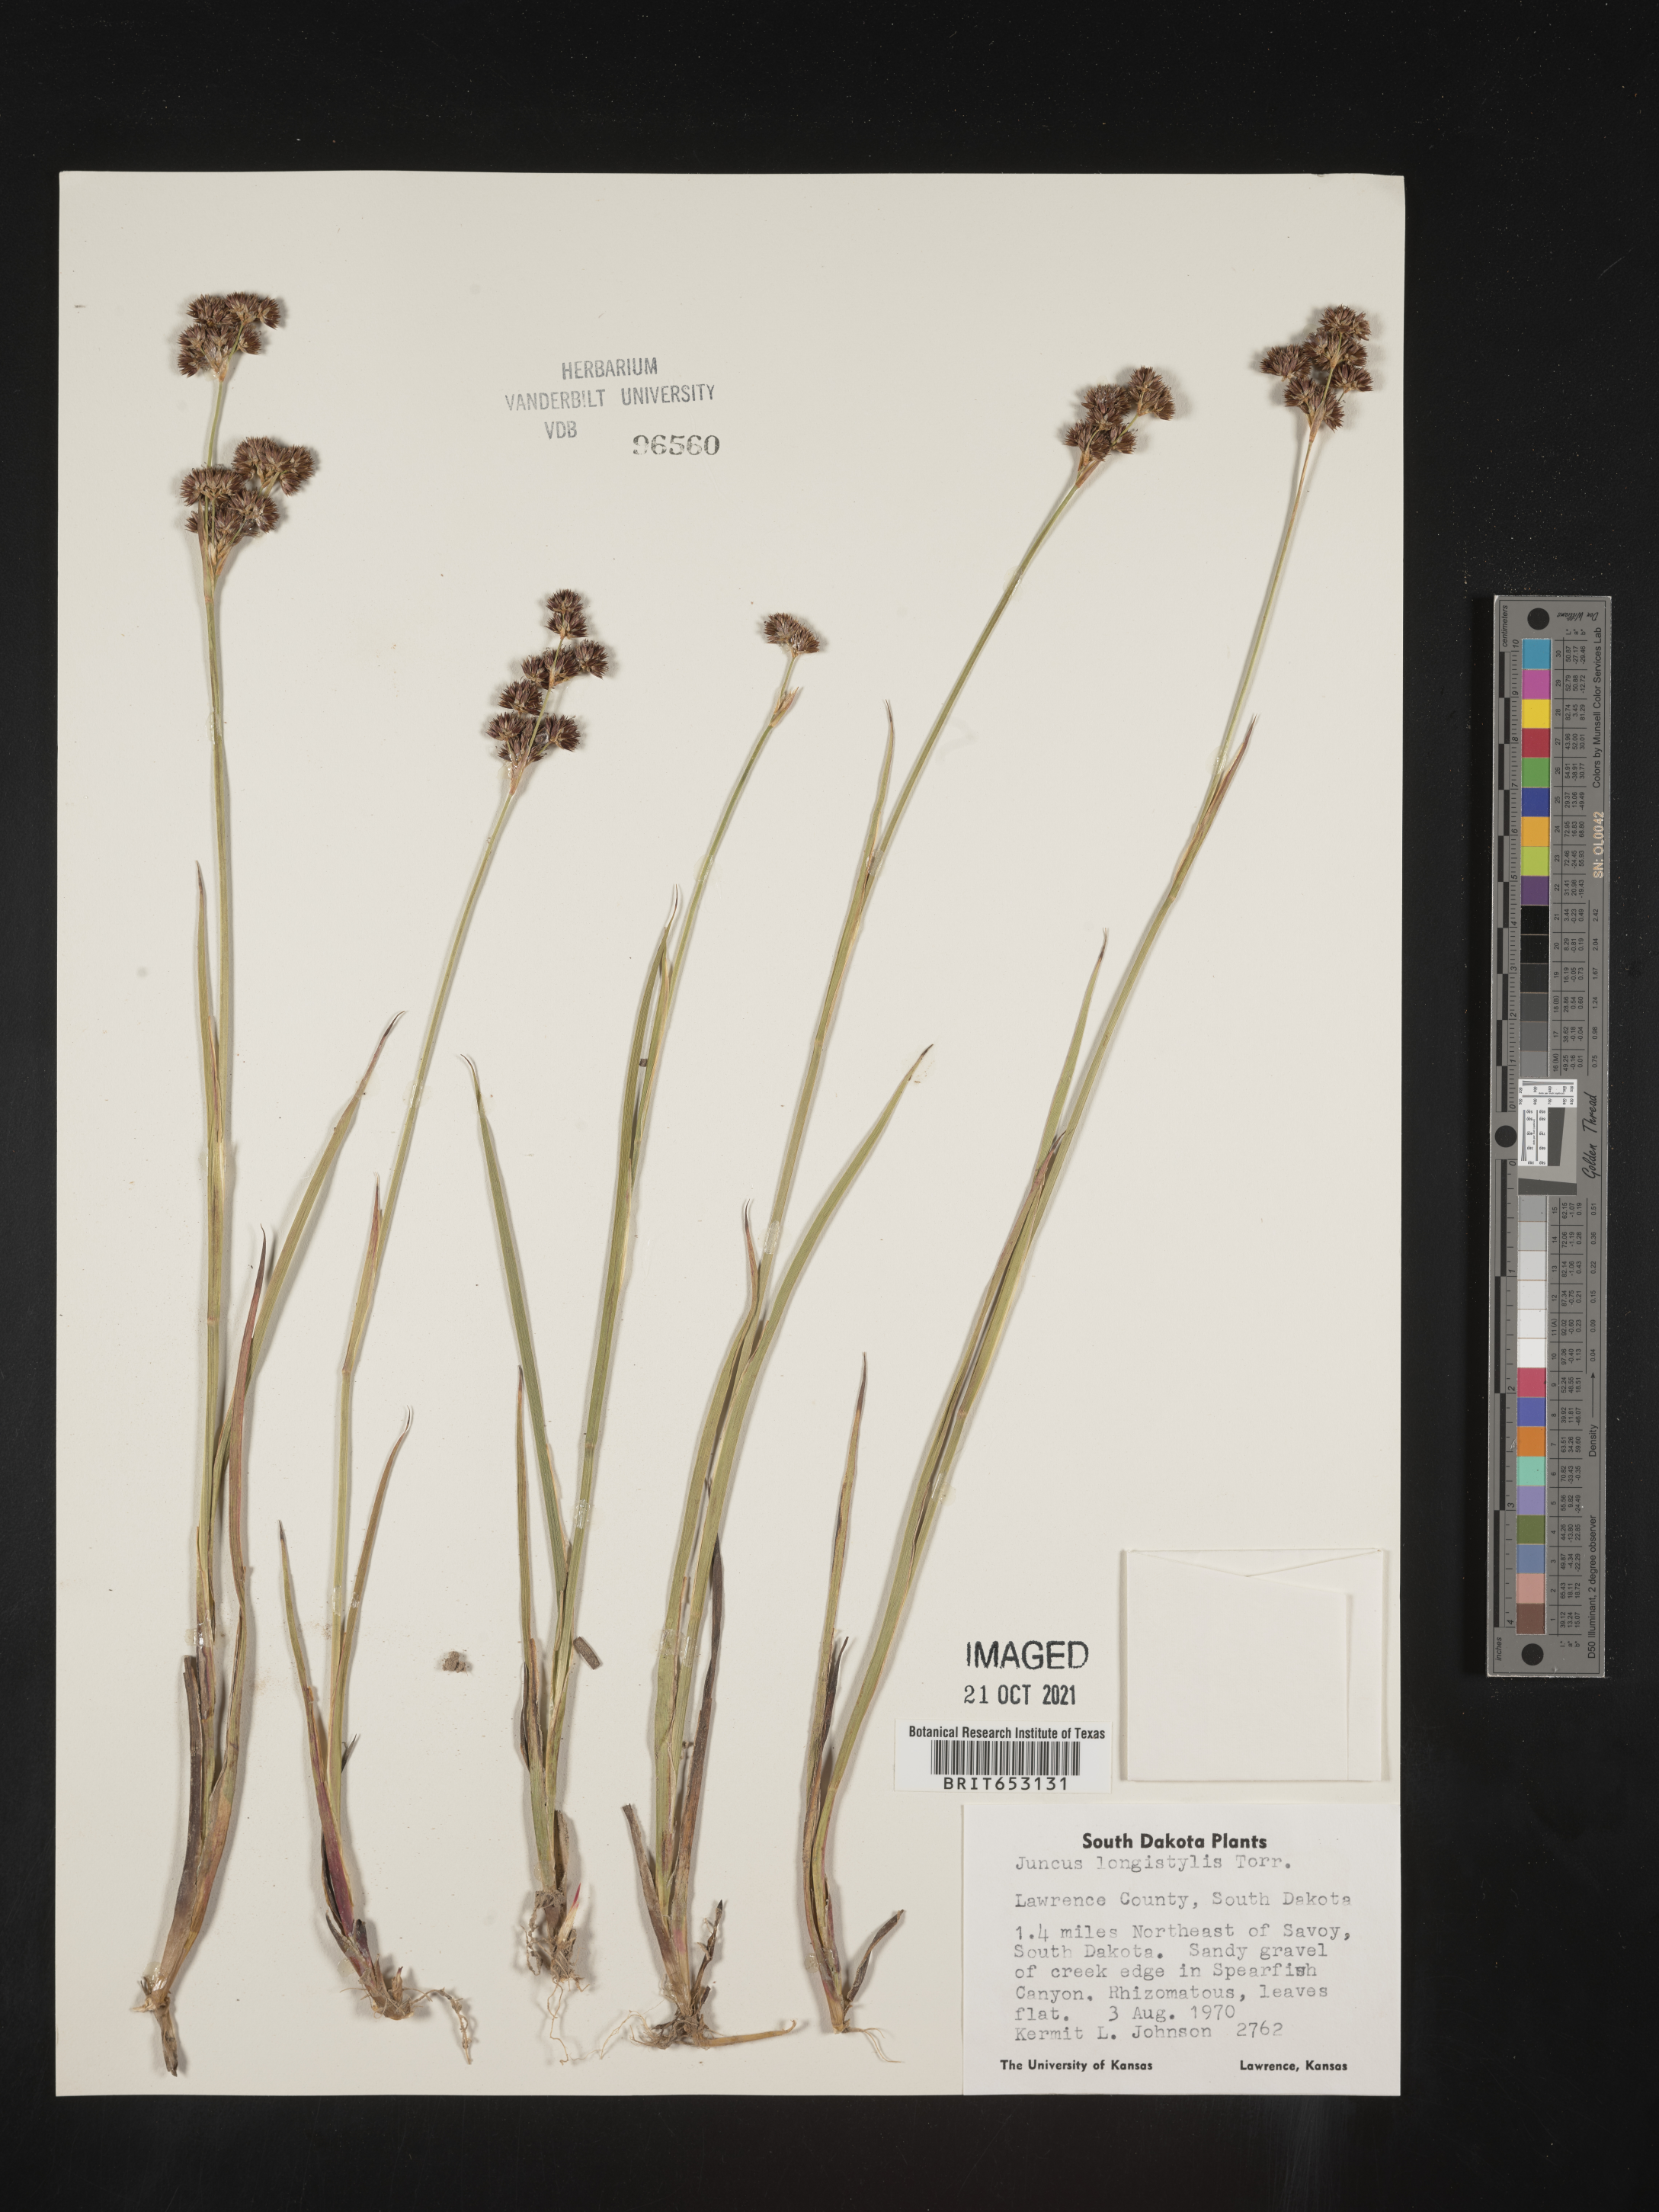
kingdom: Plantae
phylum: Tracheophyta
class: Liliopsida
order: Poales
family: Juncaceae
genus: Juncus
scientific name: Juncus longistylis
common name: Long-style rush
